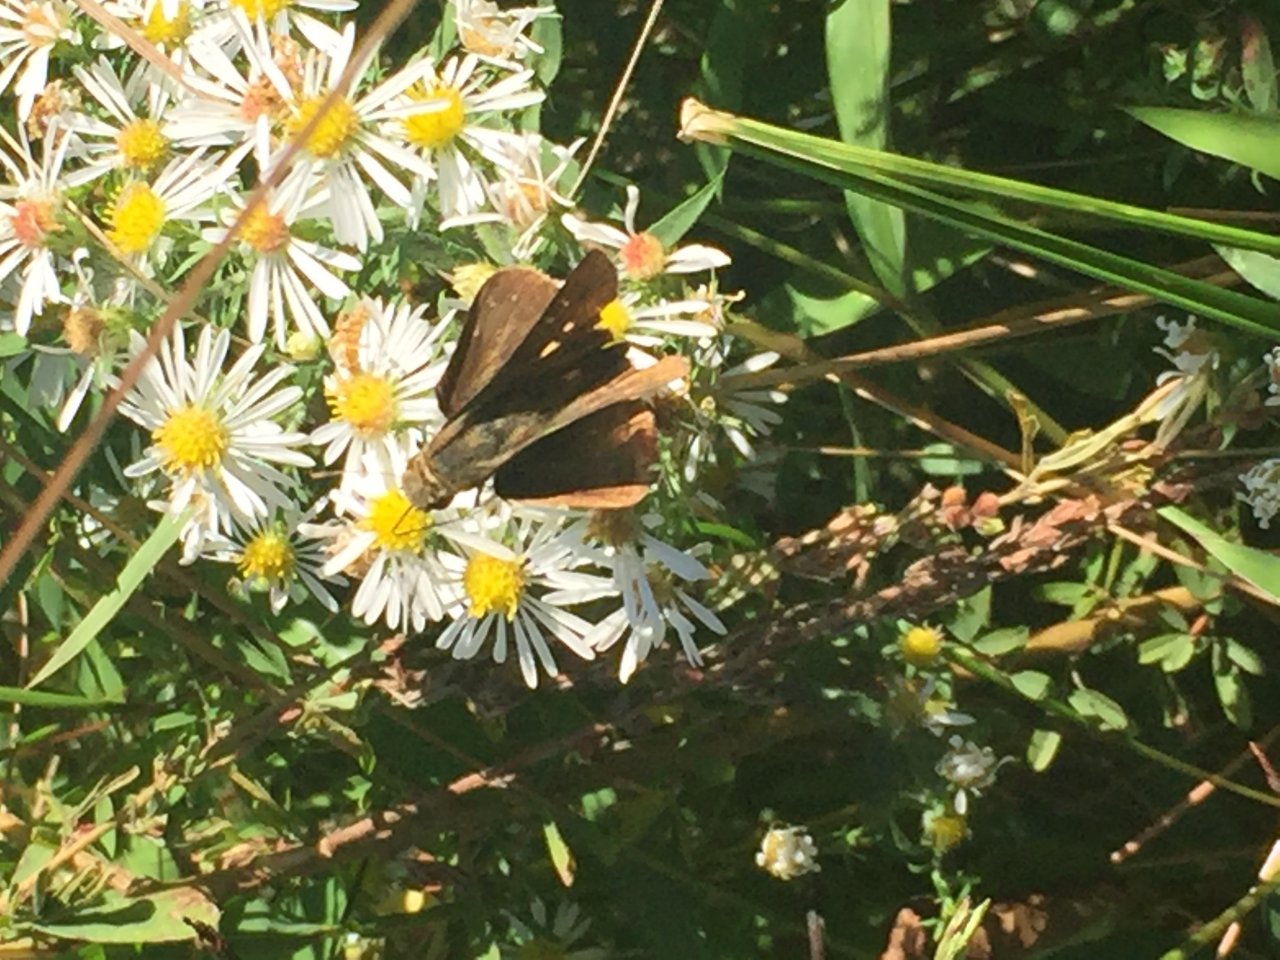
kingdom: Animalia
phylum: Arthropoda
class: Insecta
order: Lepidoptera
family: Hesperiidae
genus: Panoquina
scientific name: Panoquina ocola
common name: Ocola Skipper
